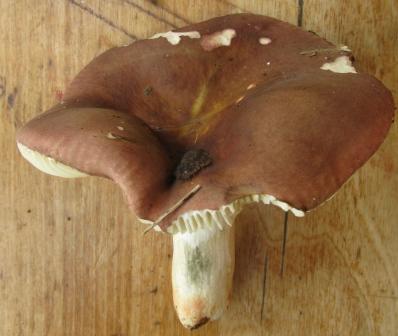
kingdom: Fungi
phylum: Basidiomycota
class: Agaricomycetes
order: Russulales
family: Russulaceae
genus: Russula
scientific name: Russula graveolens
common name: bugtet skørhat
